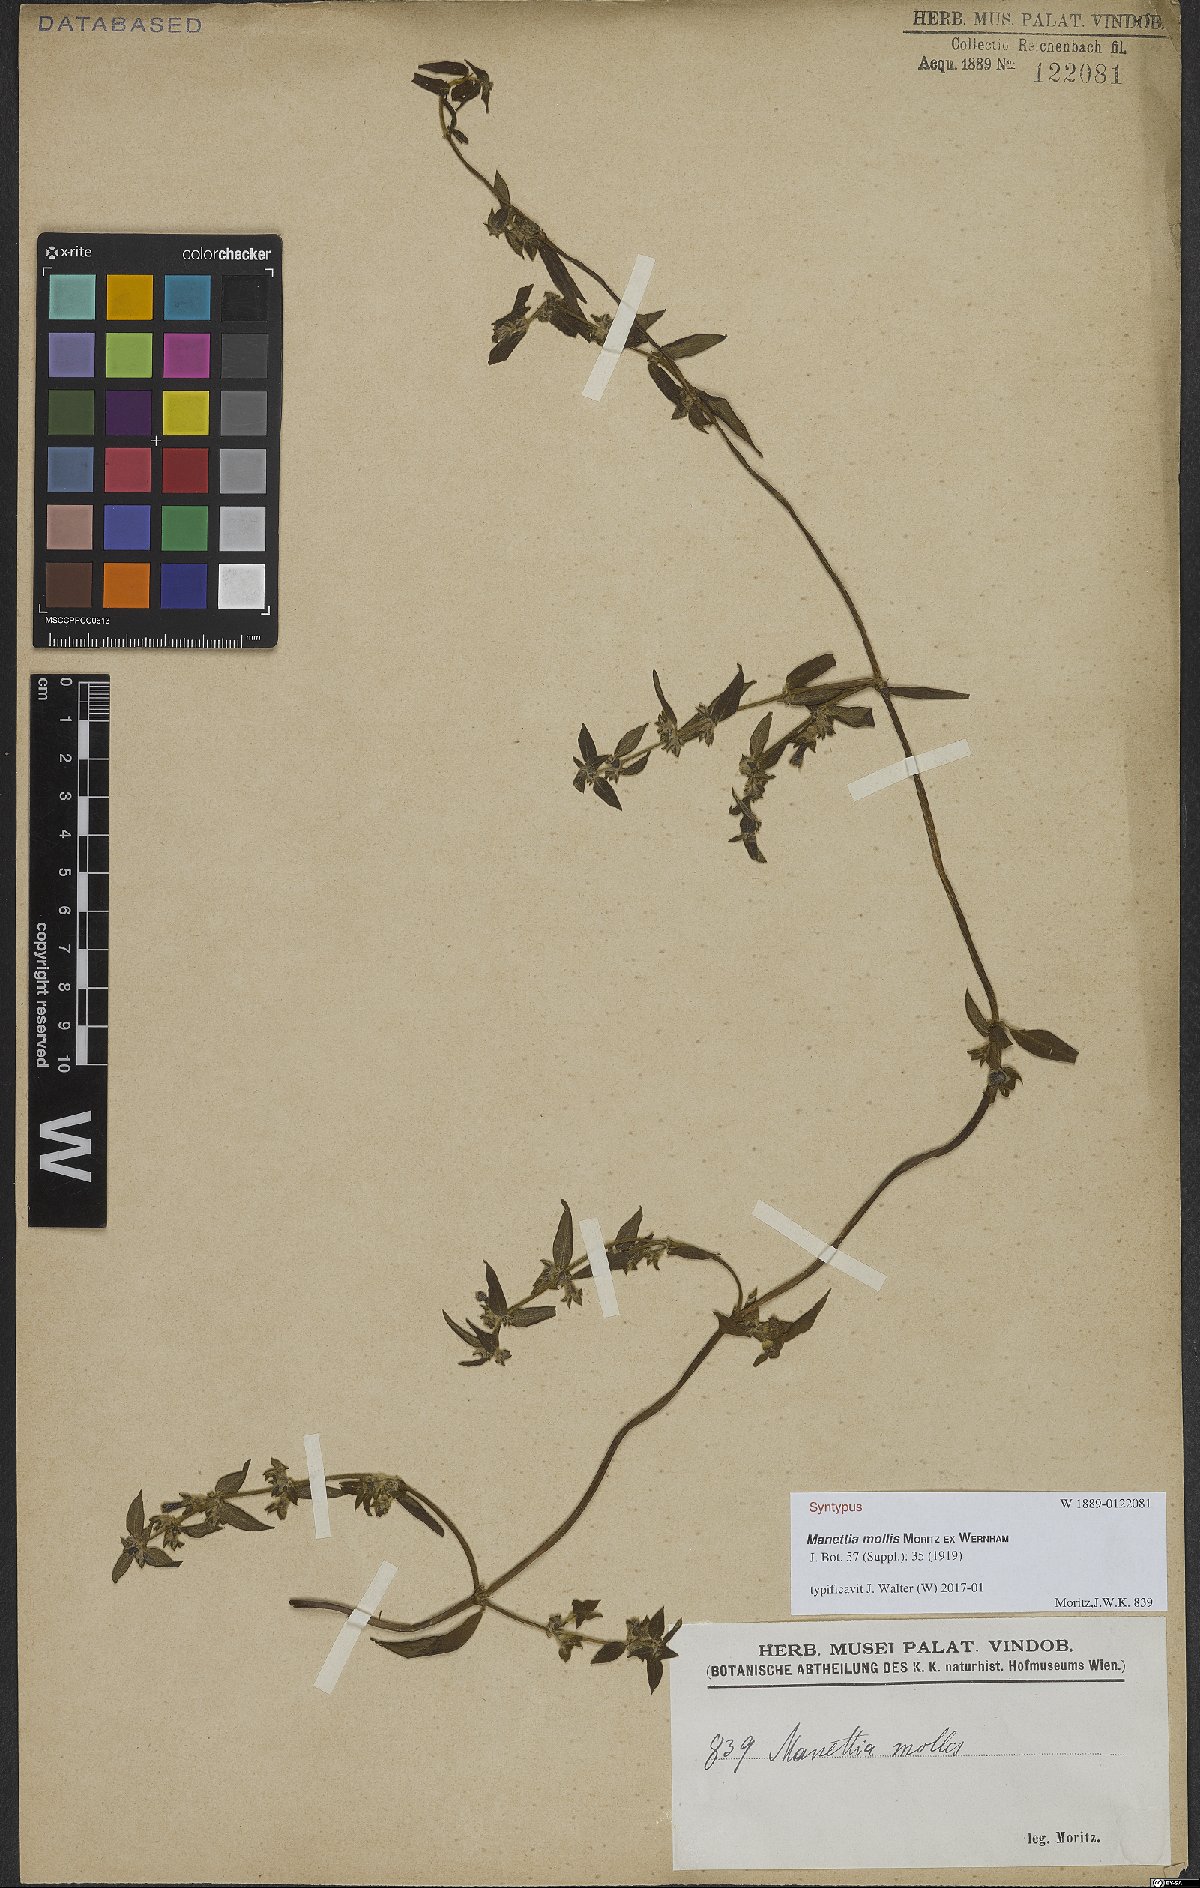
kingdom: Plantae
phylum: Tracheophyta
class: Magnoliopsida
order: Gentianales
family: Rubiaceae
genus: Manettia
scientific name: Manettia mollis
